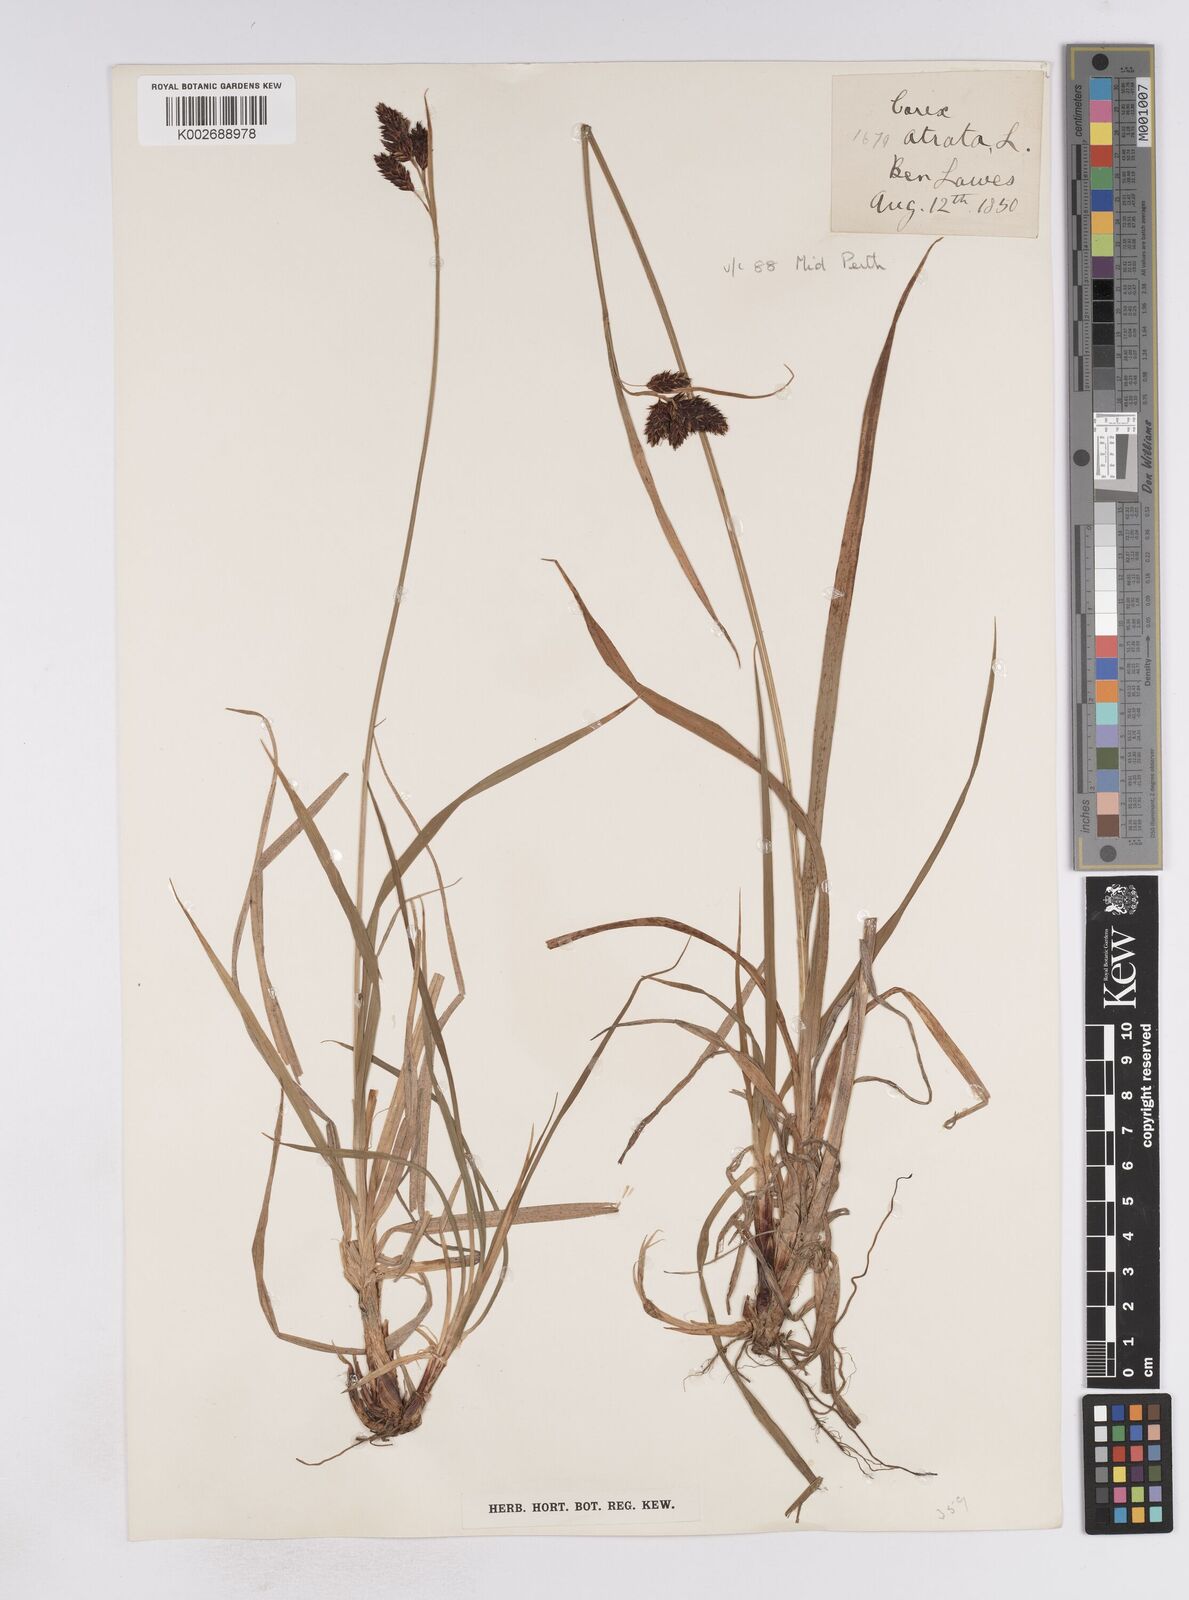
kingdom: Plantae
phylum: Tracheophyta
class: Liliopsida
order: Poales
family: Cyperaceae
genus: Carex
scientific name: Carex atrata
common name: Black alpine sedge
